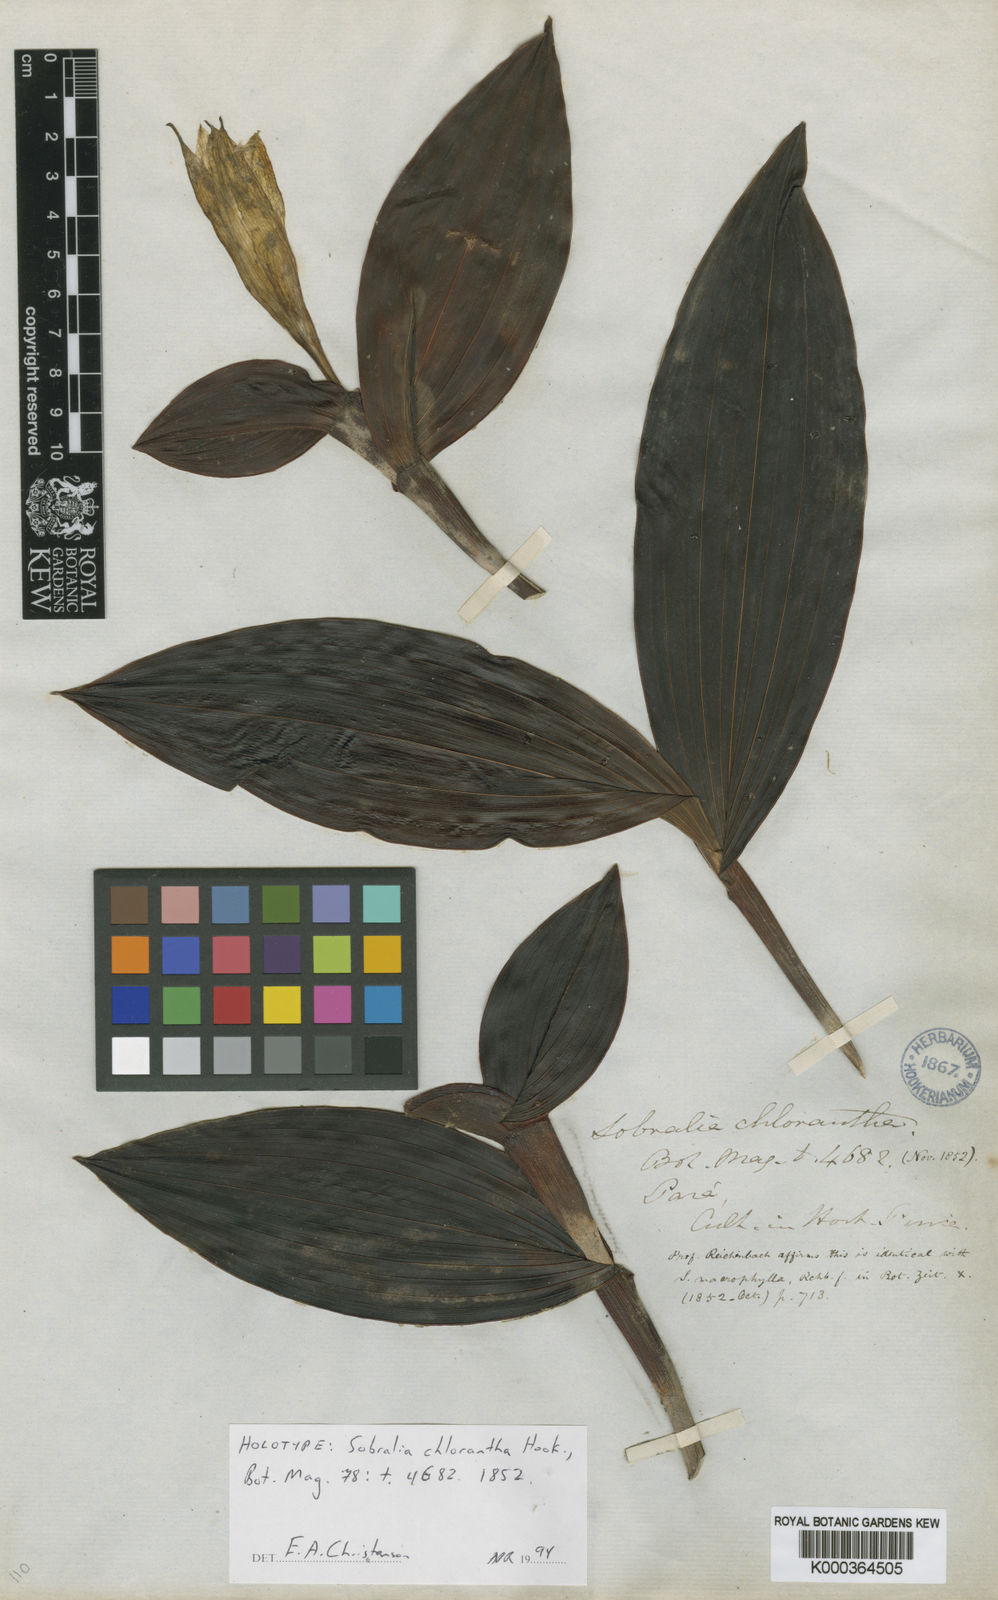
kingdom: Plantae
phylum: Tracheophyta
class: Liliopsida
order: Asparagales
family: Orchidaceae
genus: Sobralia
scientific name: Sobralia macrophylla
